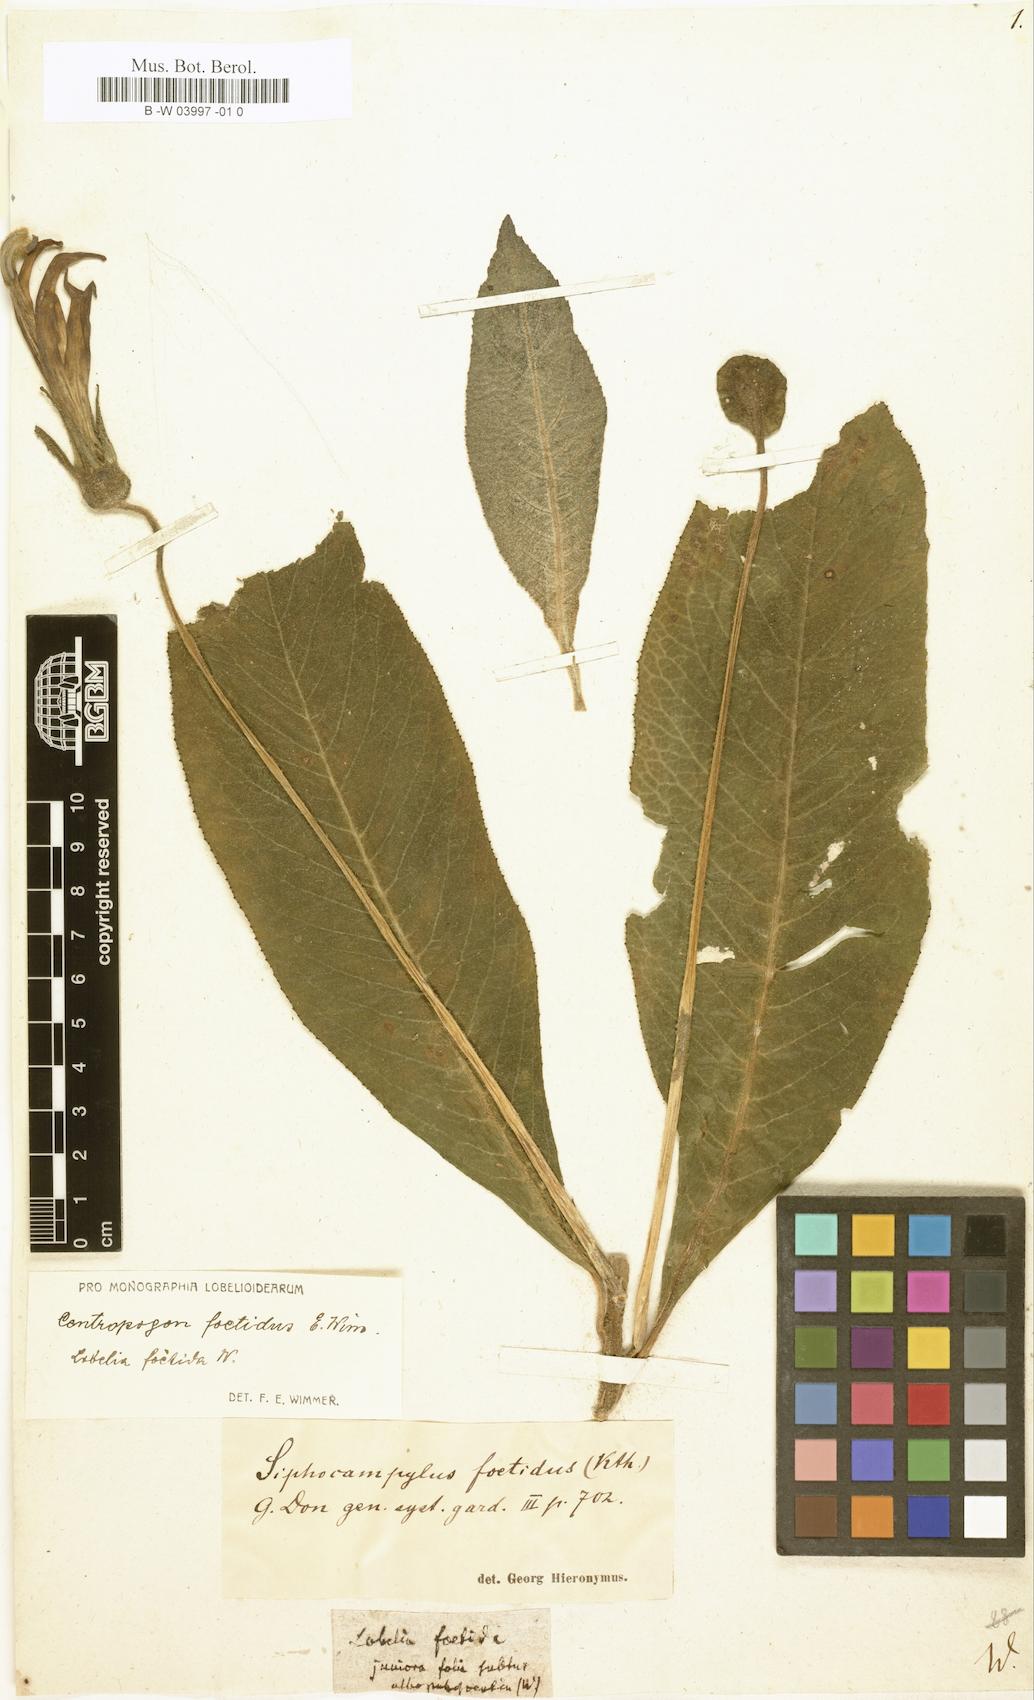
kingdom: Plantae
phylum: Tracheophyta
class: Magnoliopsida
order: Asterales
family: Campanulaceae
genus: Centropogon
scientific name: Centropogon foetidus
